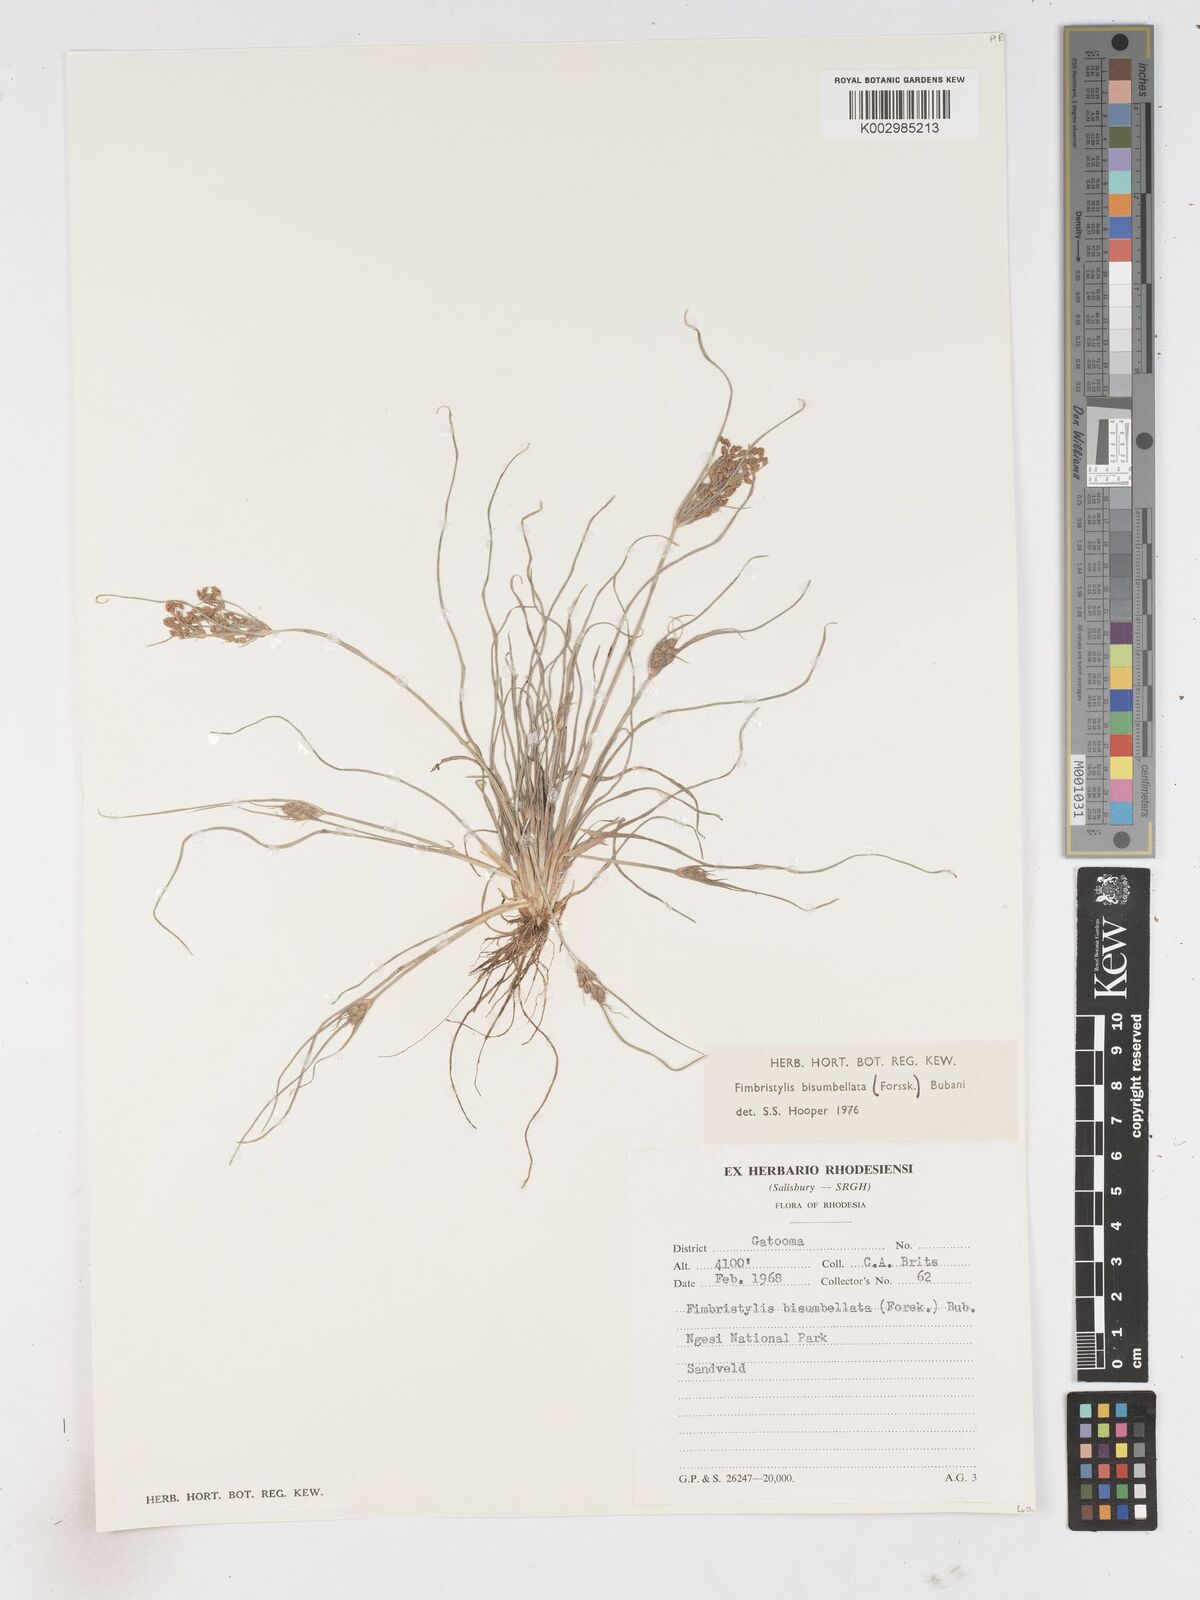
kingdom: Plantae
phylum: Tracheophyta
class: Liliopsida
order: Poales
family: Cyperaceae
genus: Fimbristylis
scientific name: Fimbristylis bisumbellata
